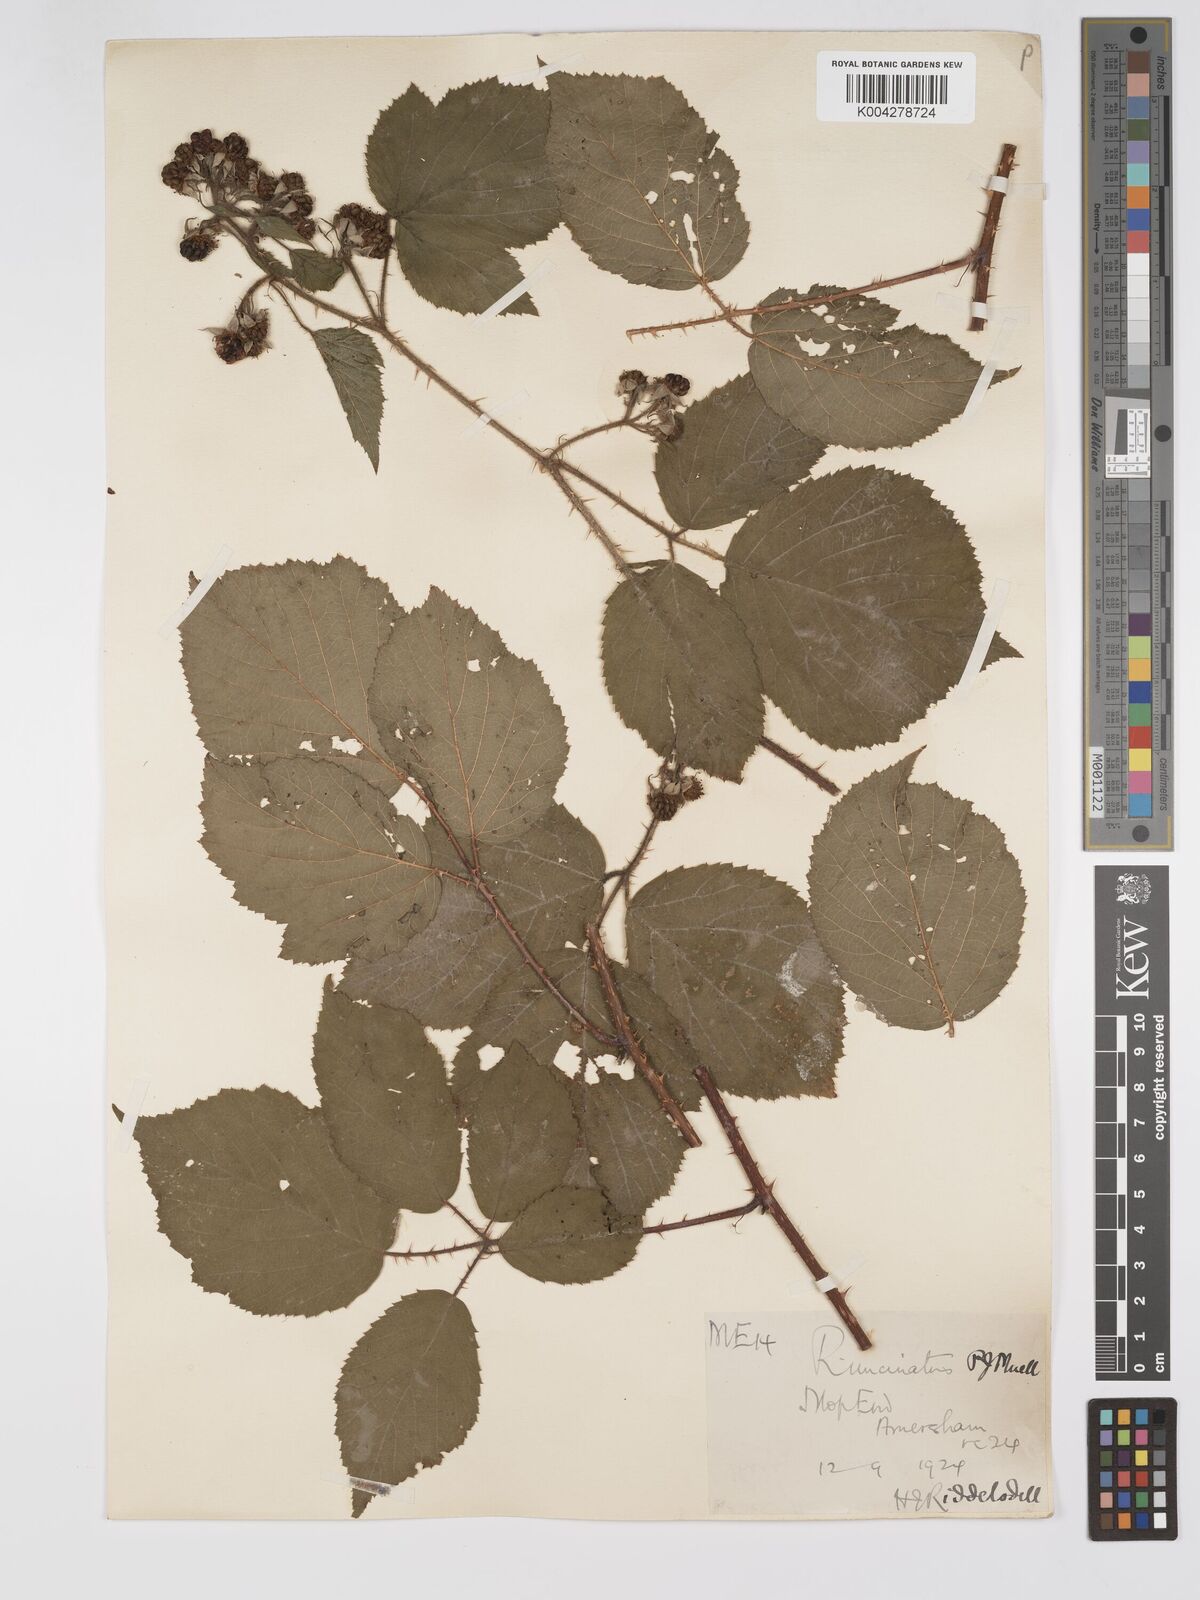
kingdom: Plantae
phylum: Tracheophyta
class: Magnoliopsida
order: Rosales
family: Rosaceae
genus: Rubus
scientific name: Rubus uncinatus
